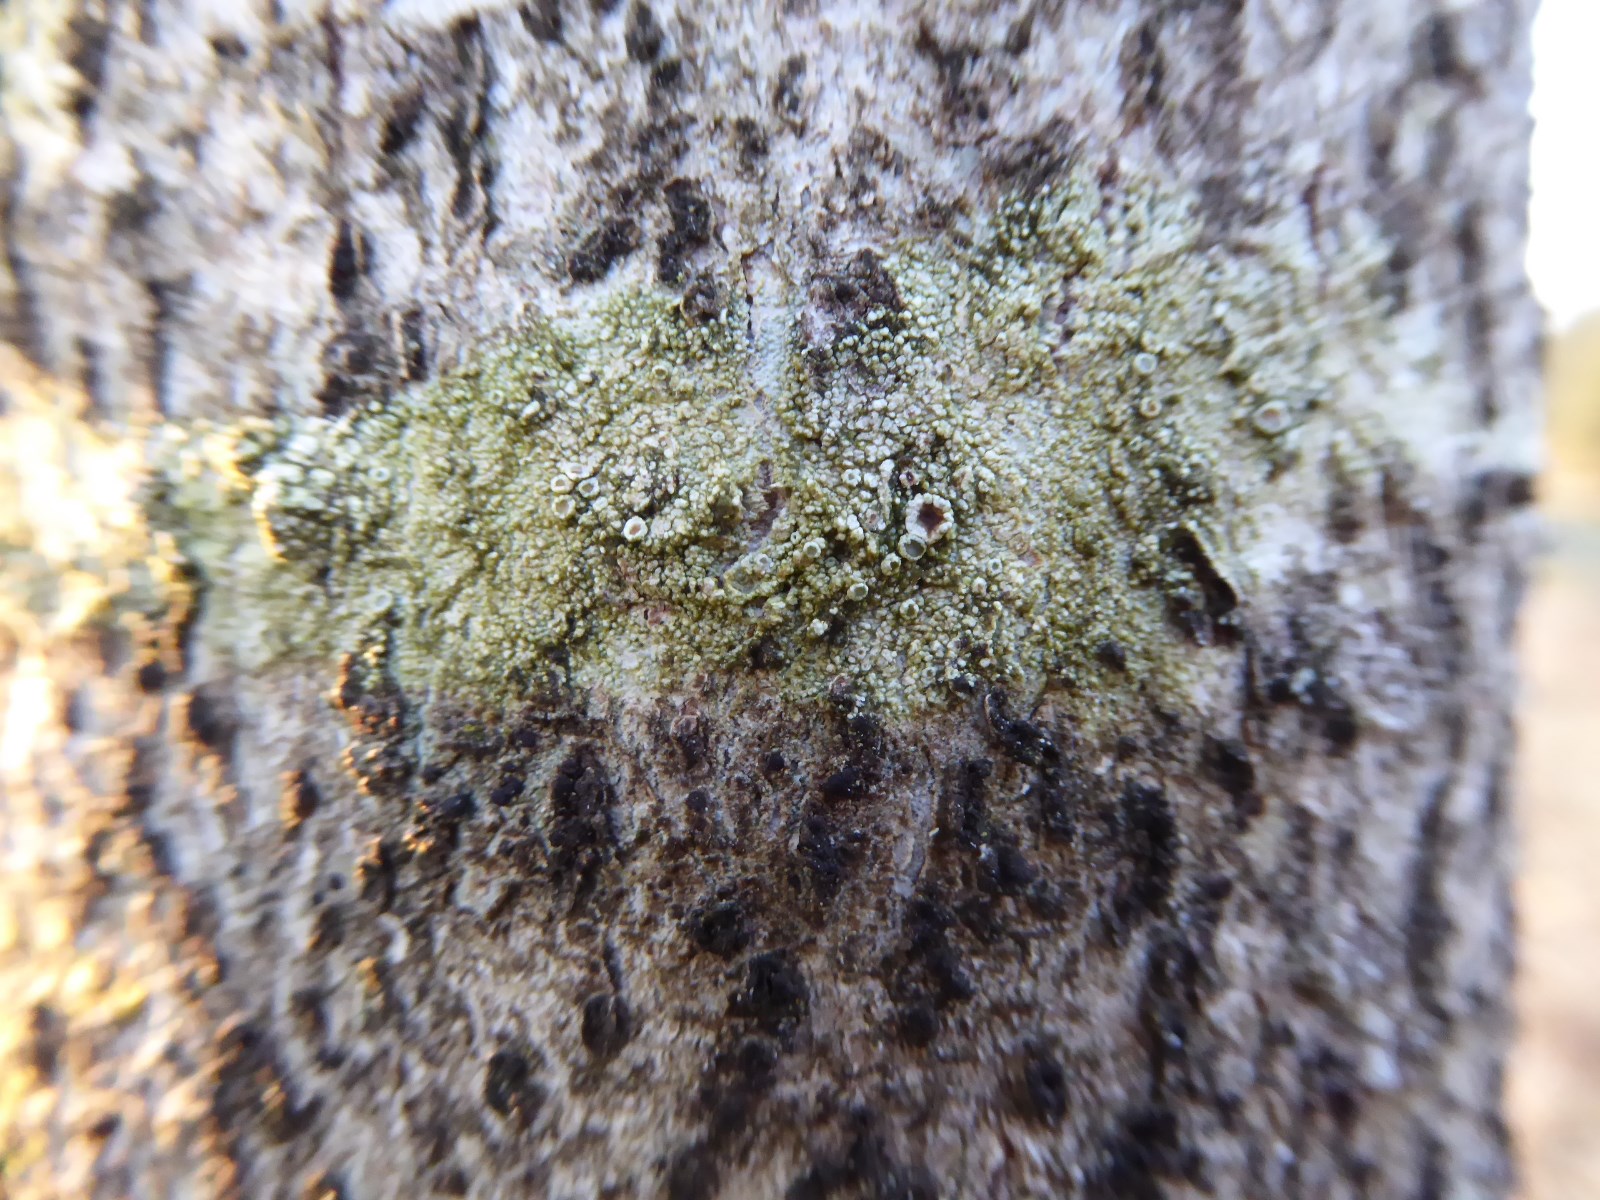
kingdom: Fungi
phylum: Ascomycota
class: Lecanoromycetes
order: Lecanorales
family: Lecanoraceae
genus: Lecanora
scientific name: Lecanora
